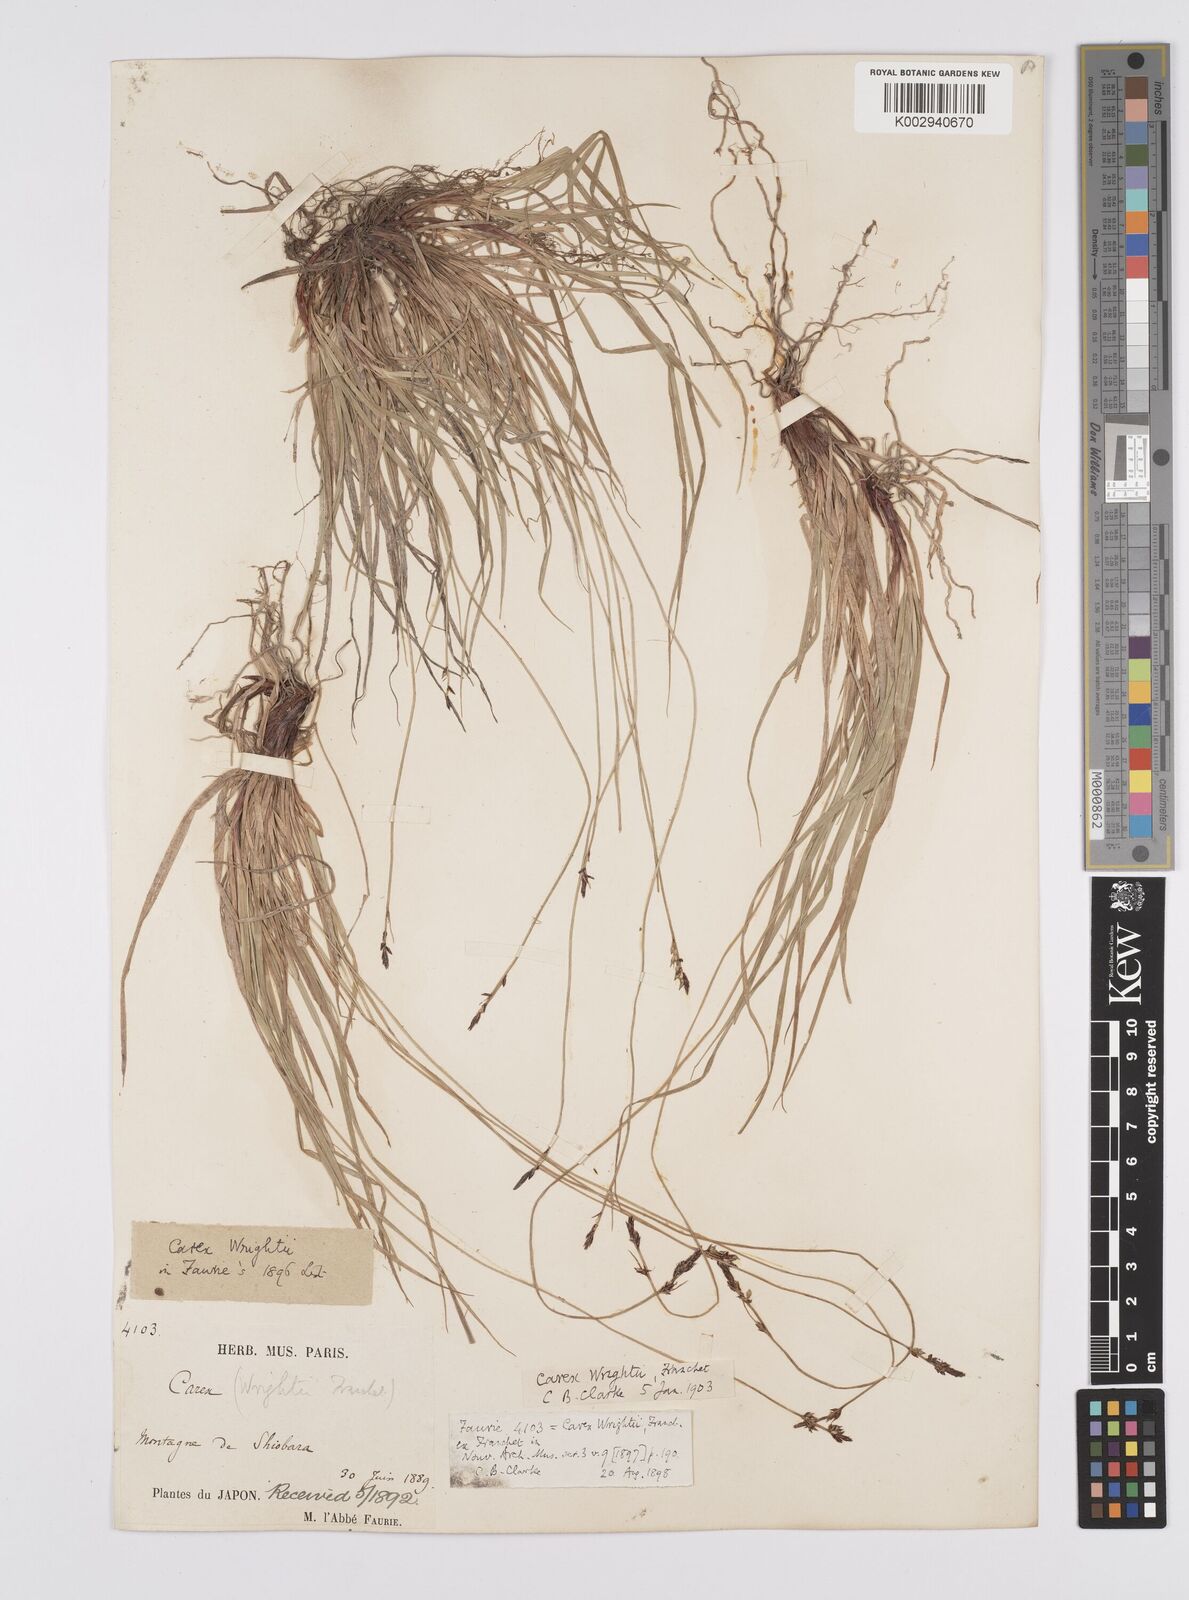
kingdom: Plantae
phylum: Tracheophyta
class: Liliopsida
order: Poales
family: Cyperaceae
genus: Carex
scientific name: Carex oxyandra
